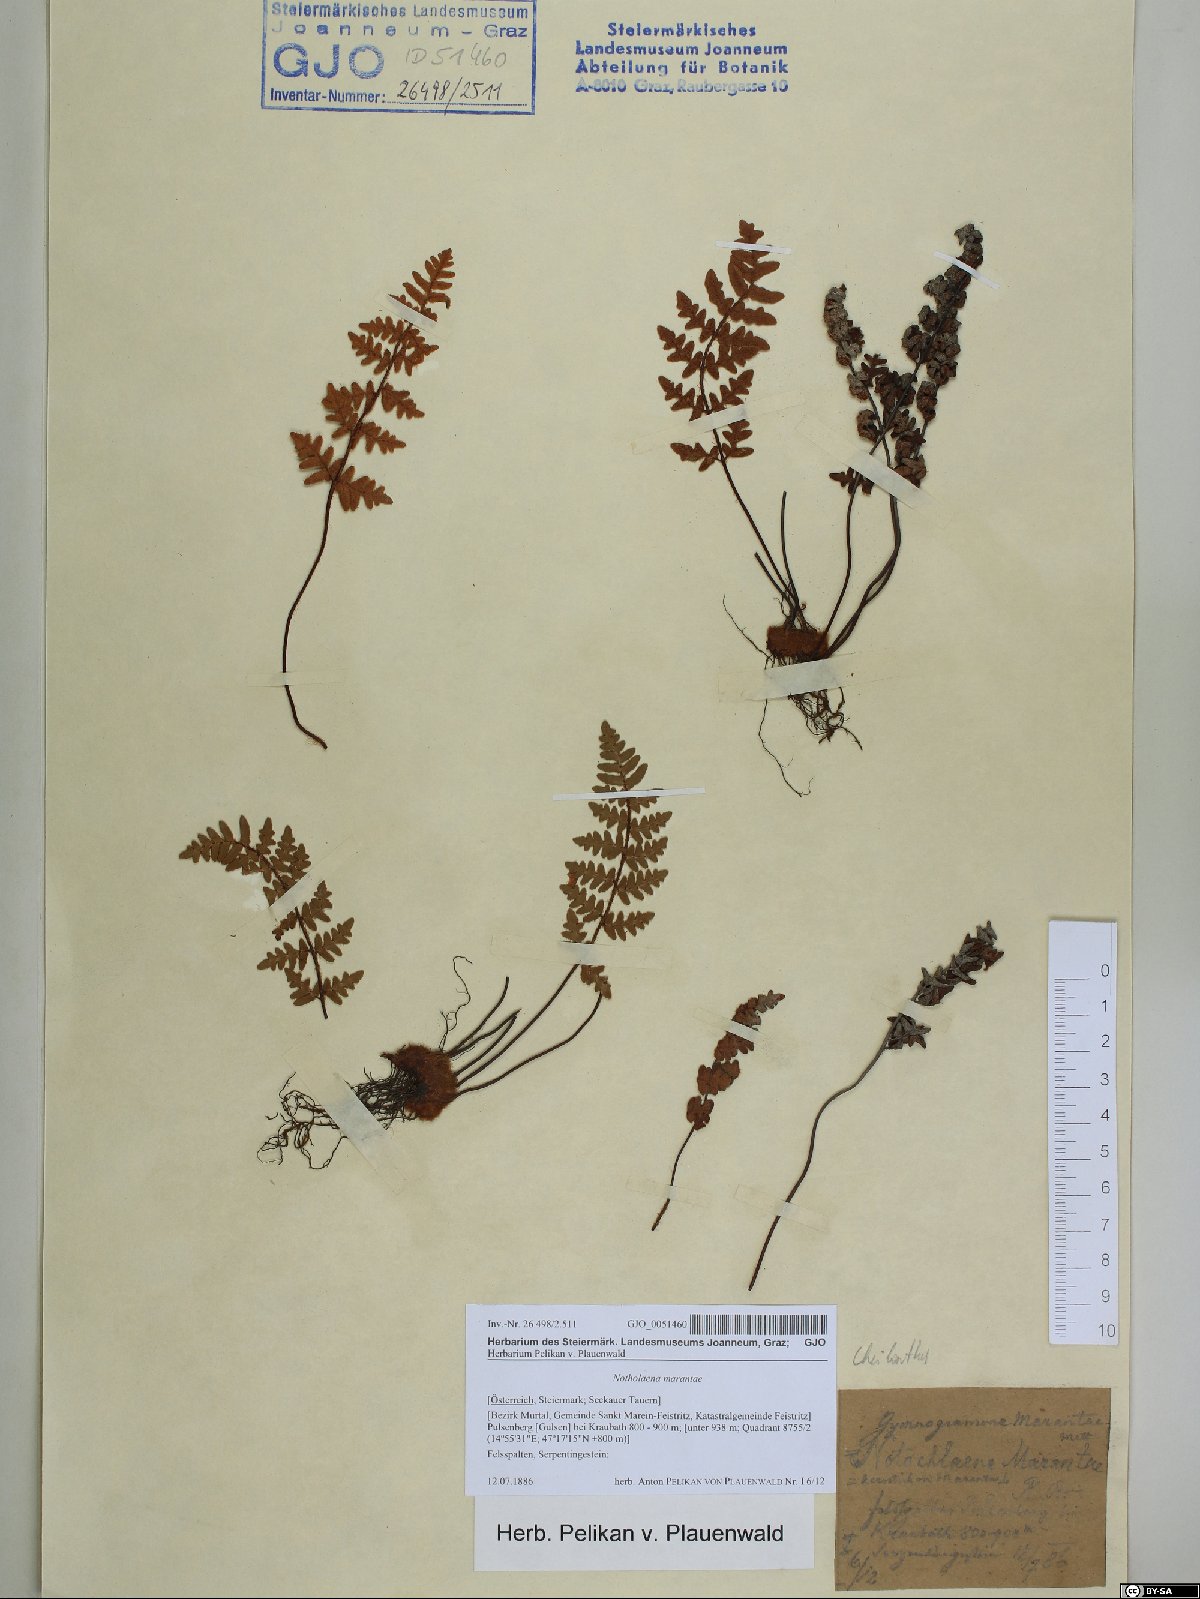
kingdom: Plantae
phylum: Tracheophyta
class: Polypodiopsida
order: Polypodiales
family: Pteridaceae
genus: Paragymnopteris
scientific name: Paragymnopteris marantae
